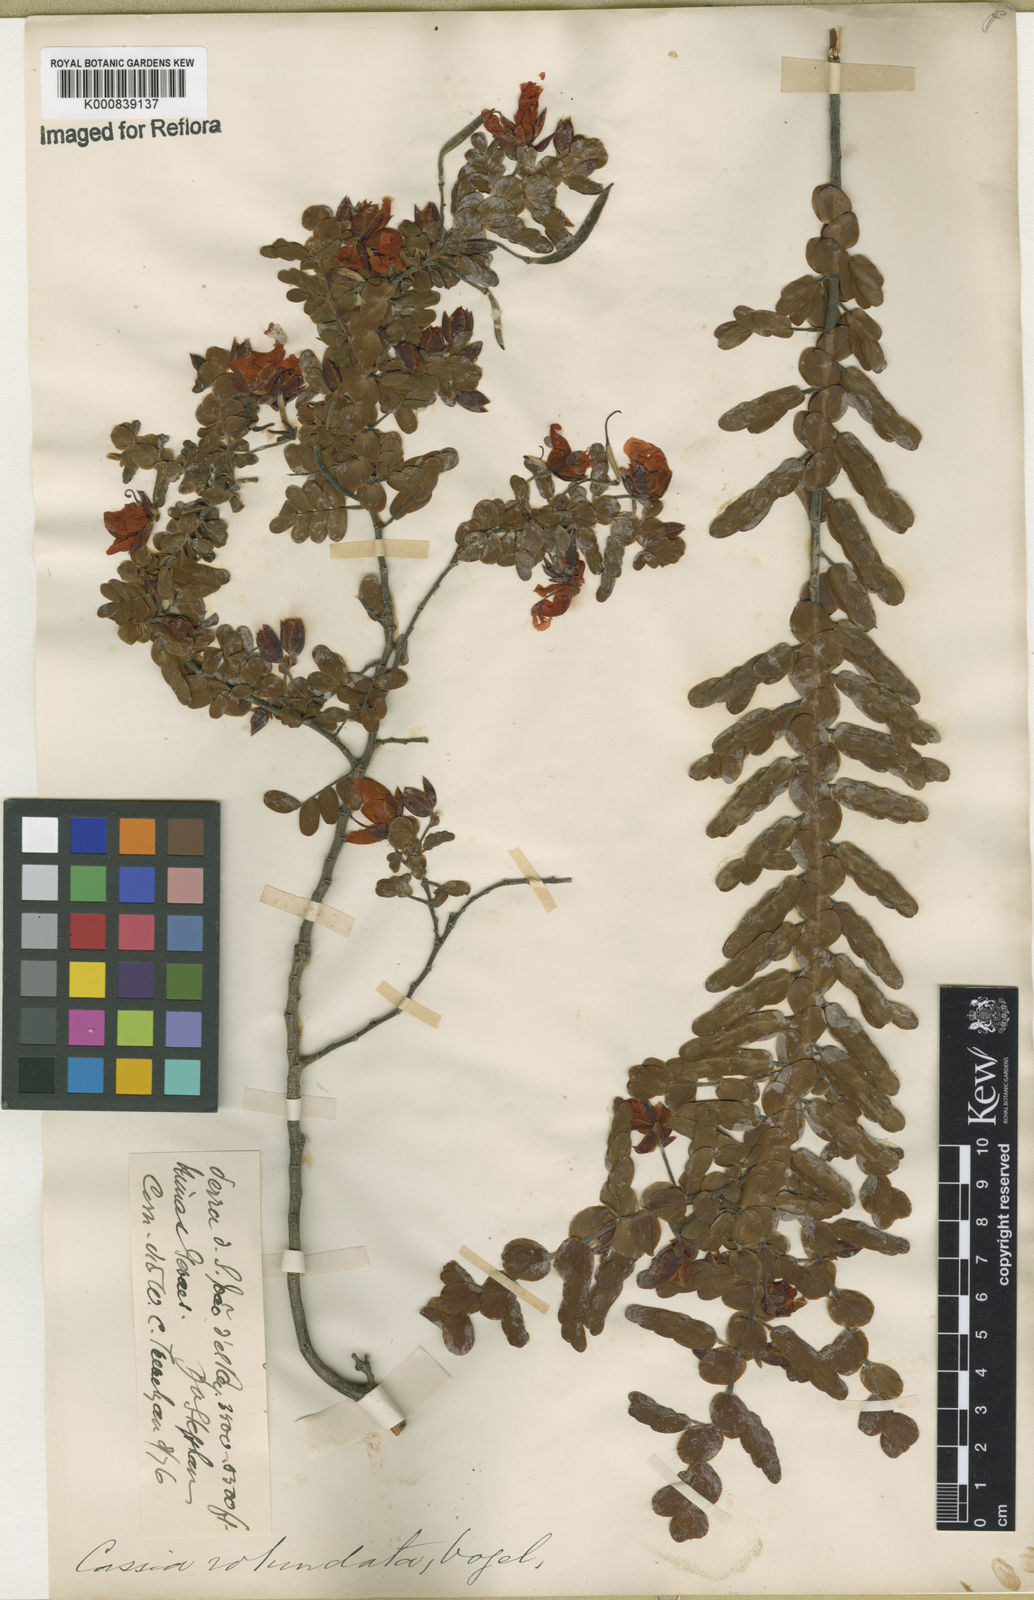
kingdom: Plantae
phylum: Tracheophyta
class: Magnoliopsida
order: Fabales
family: Fabaceae
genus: Chamaecrista
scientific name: Chamaecrista
